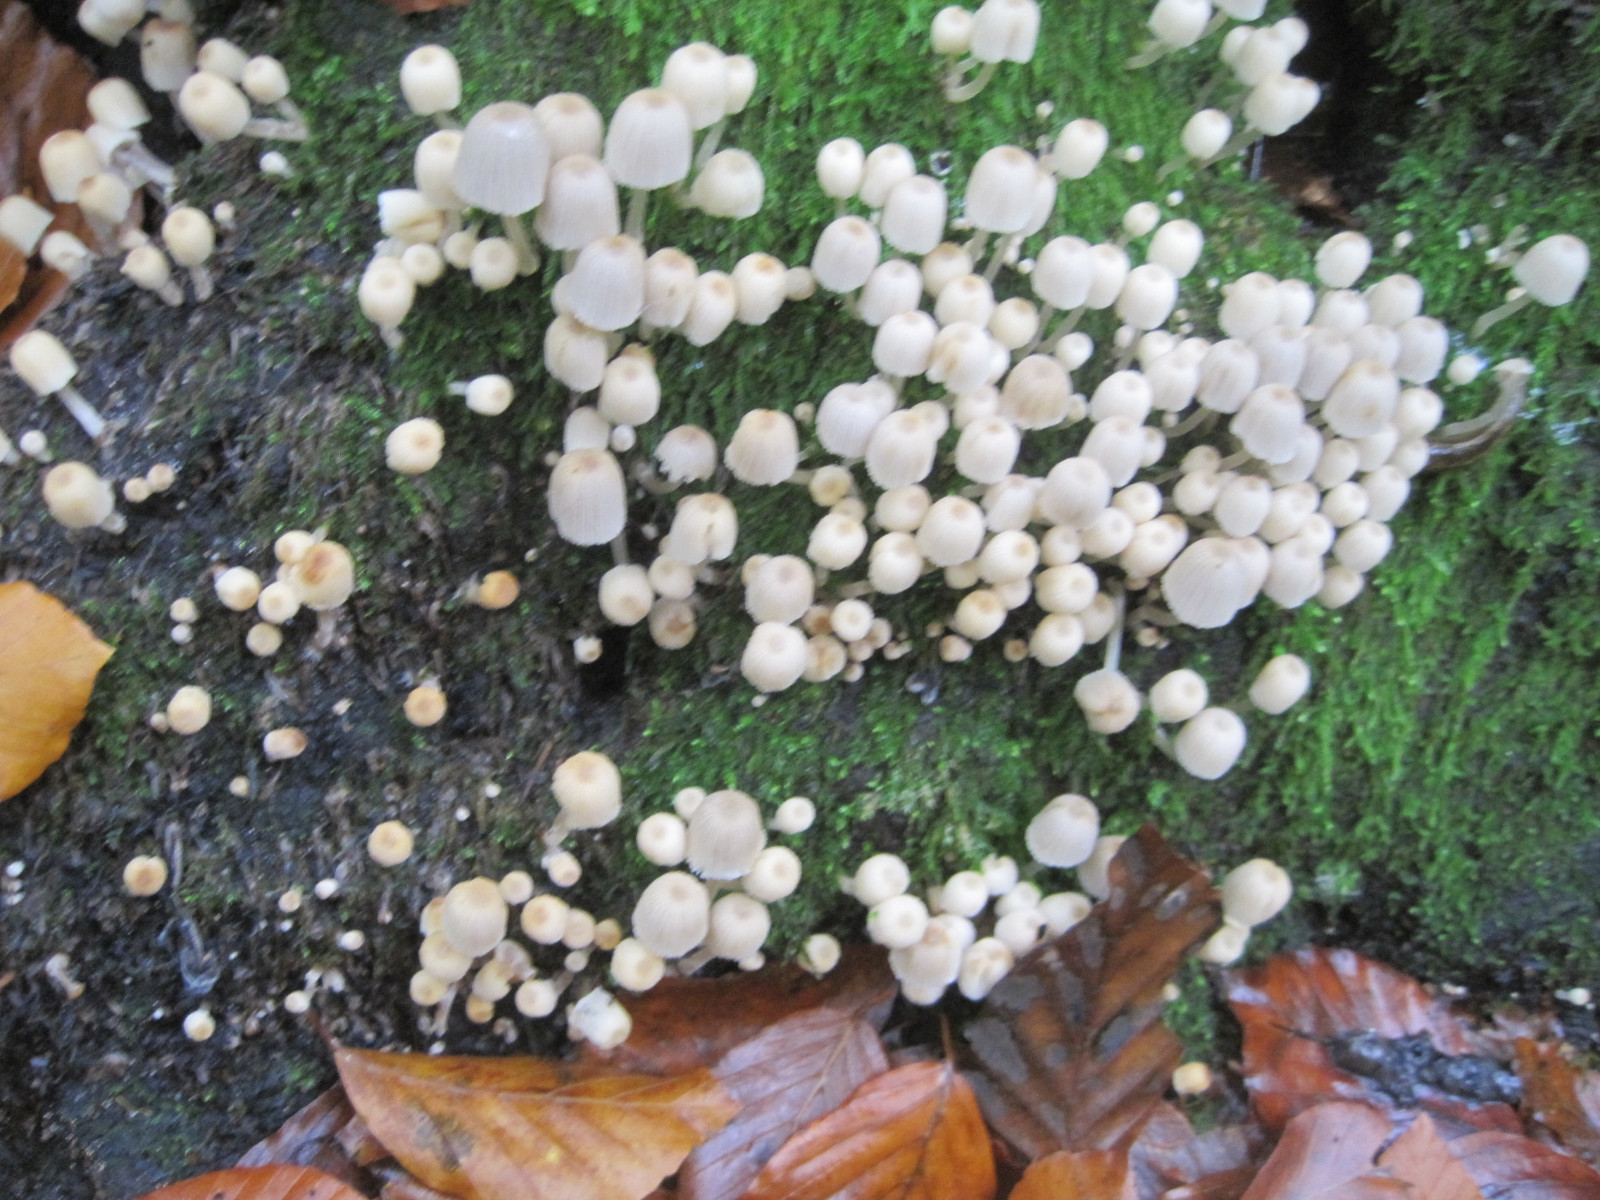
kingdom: Fungi
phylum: Basidiomycota
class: Agaricomycetes
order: Agaricales
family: Psathyrellaceae
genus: Coprinellus
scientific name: Coprinellus disseminatus
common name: bredsået blækhat
